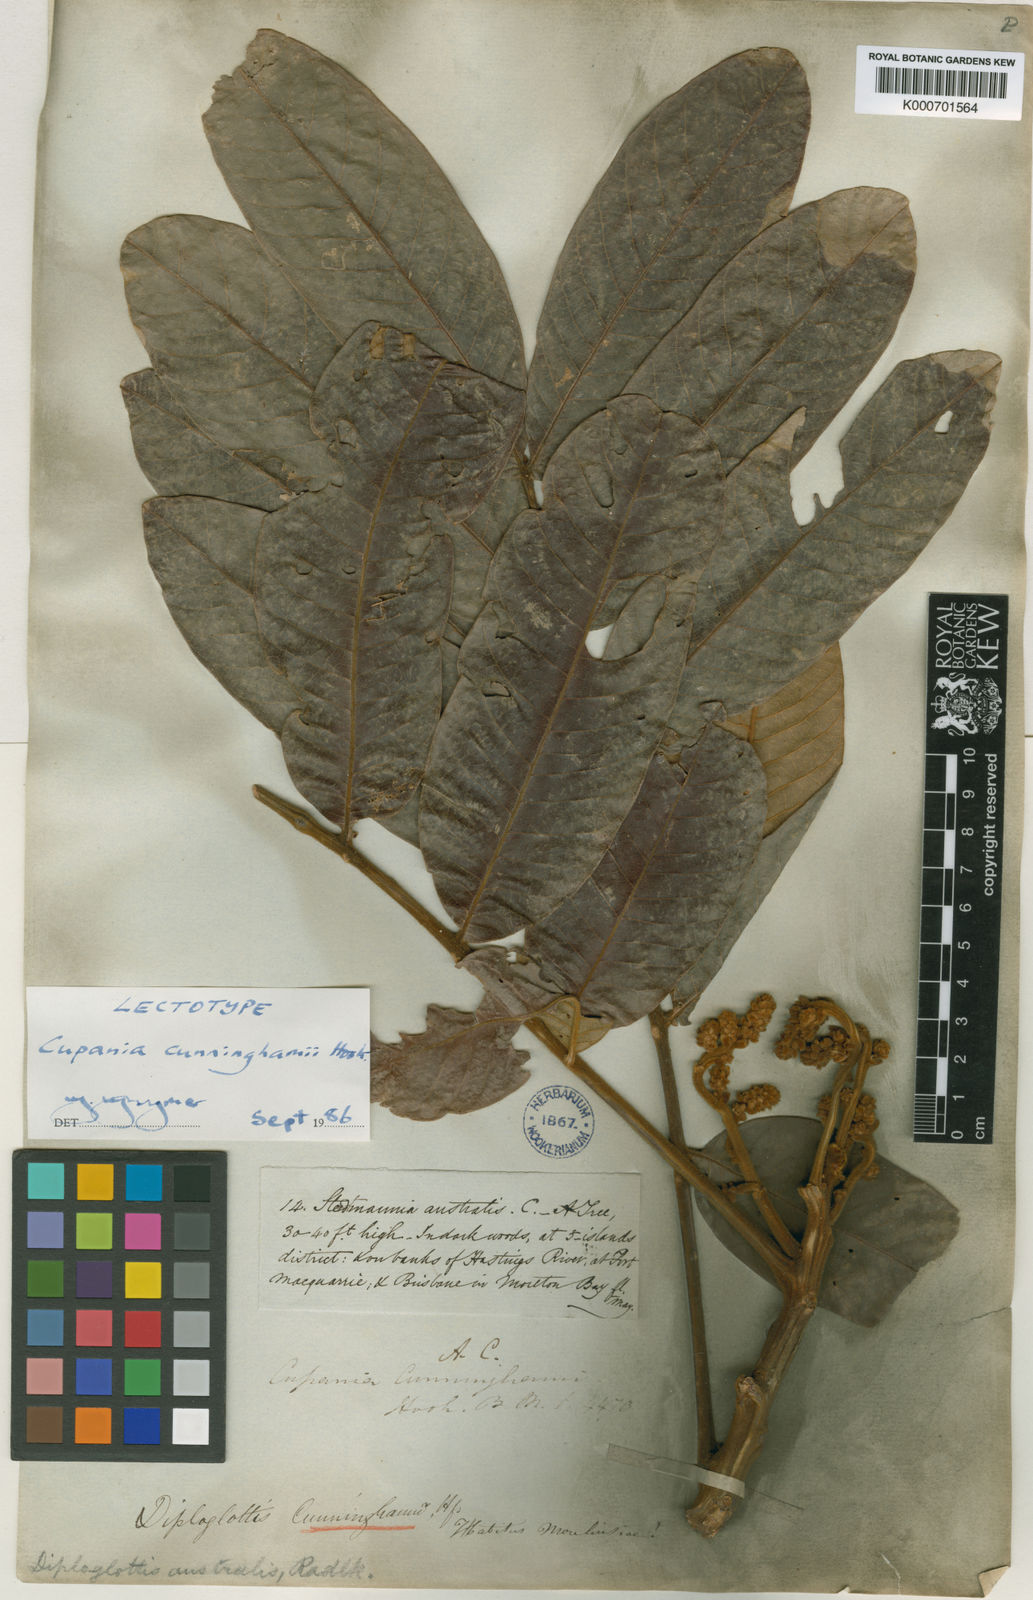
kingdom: Plantae
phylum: Tracheophyta
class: Magnoliopsida
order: Sapindales
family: Sapindaceae
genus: Diploglottis
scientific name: Diploglottis australis
